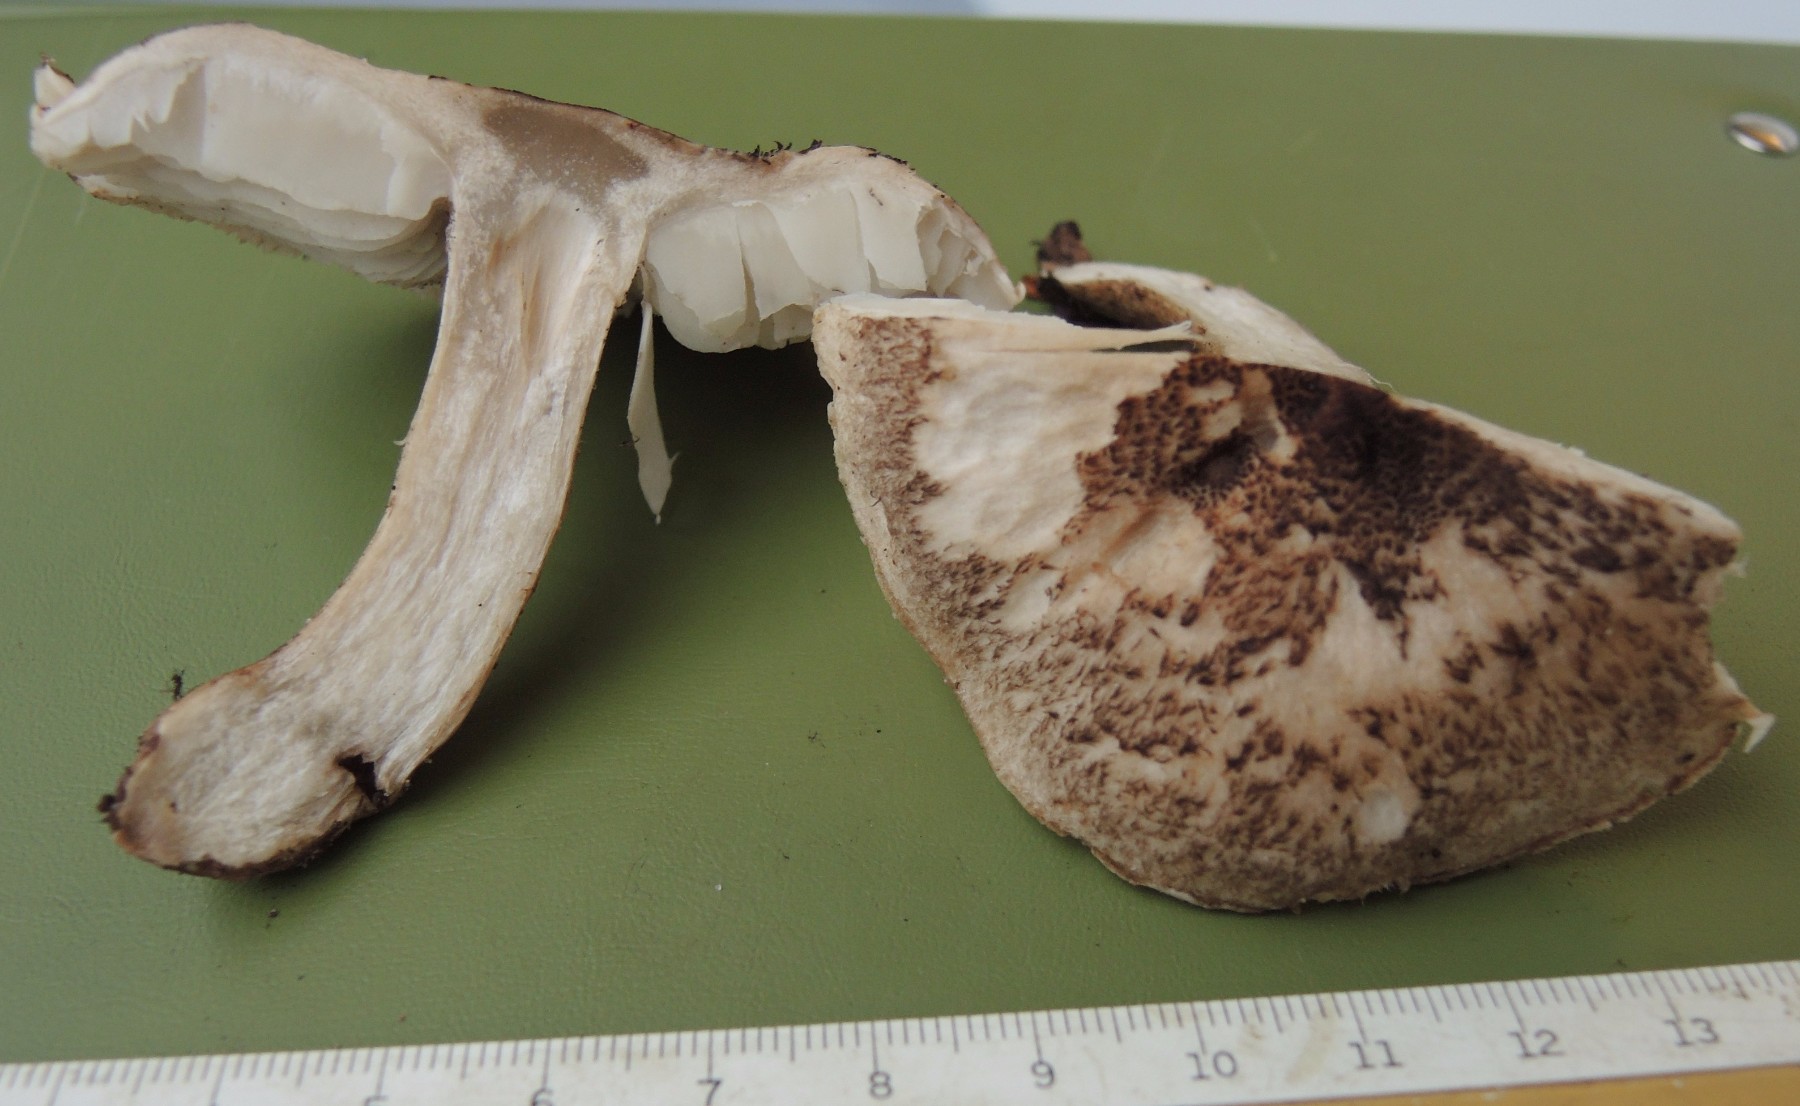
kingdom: Fungi
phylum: Basidiomycota
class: Agaricomycetes
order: Agaricales
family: Tricholomataceae
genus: Tricholoma
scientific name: Tricholoma orirubens
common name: rødbladet ridderhat
